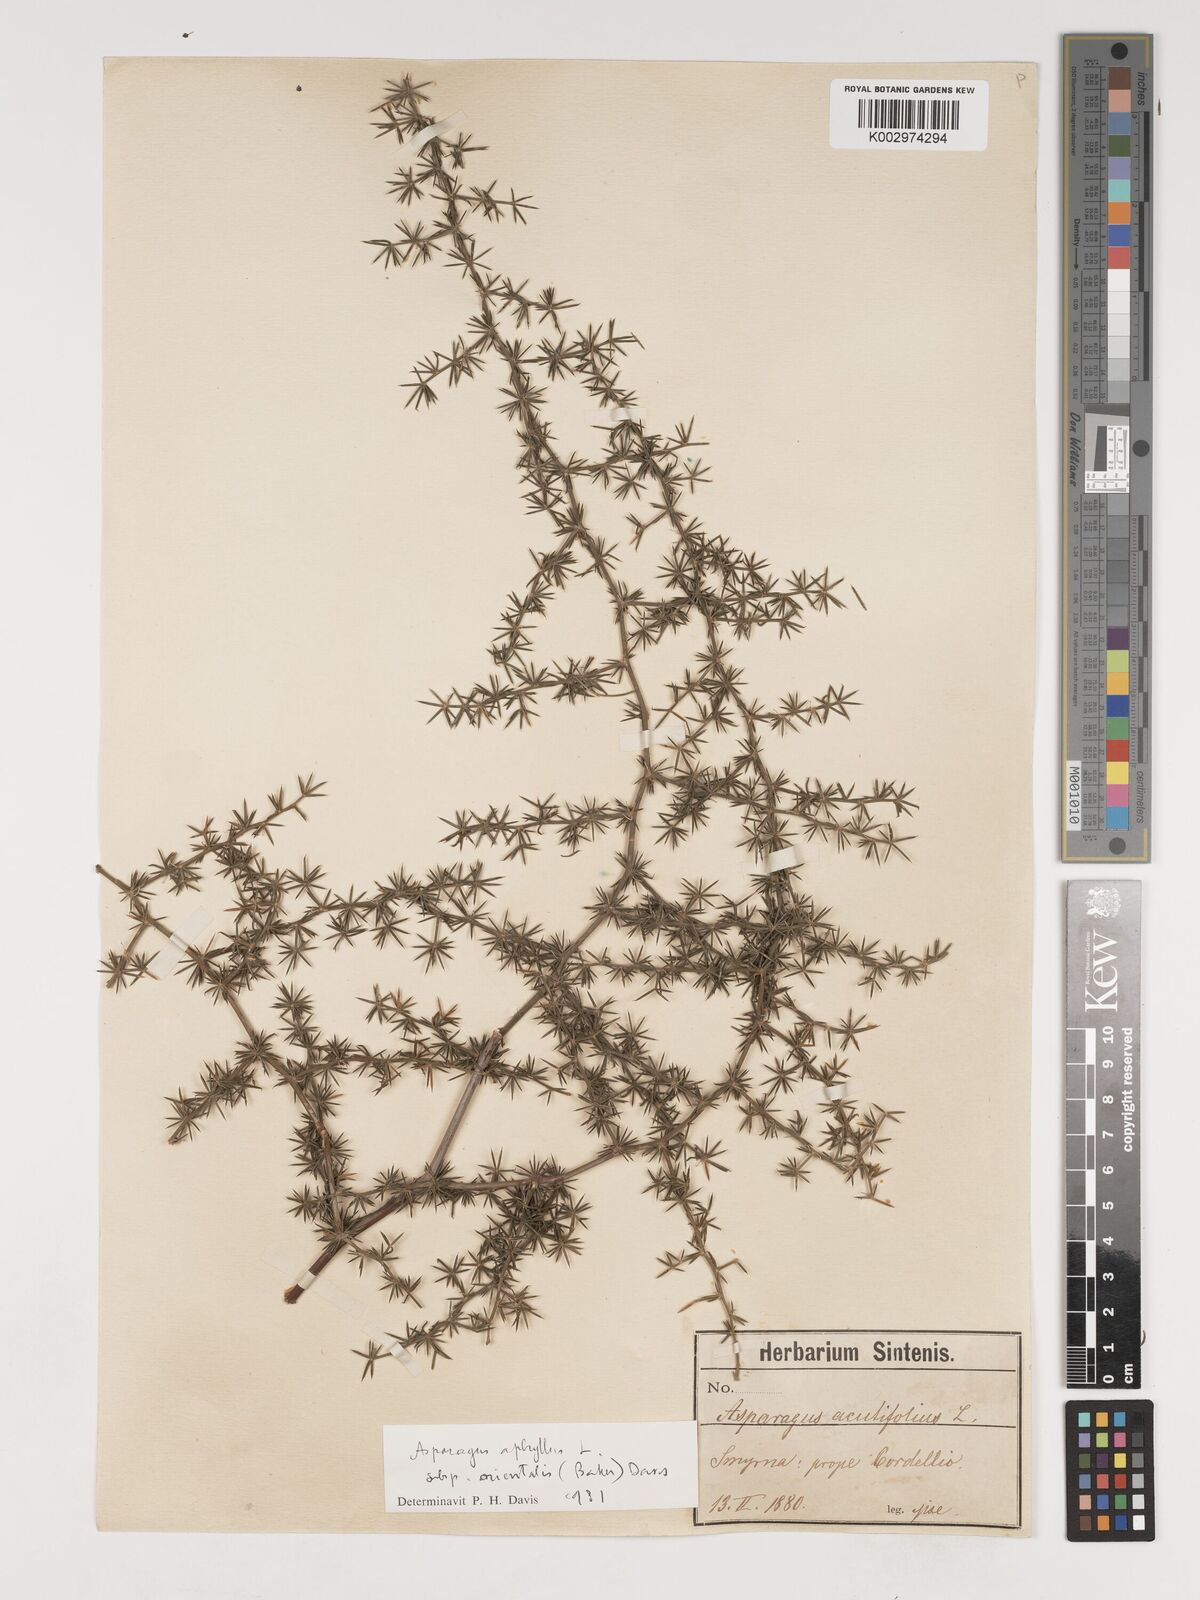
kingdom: Plantae
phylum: Tracheophyta
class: Liliopsida
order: Asparagales
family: Asparagaceae
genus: Asparagus
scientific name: Asparagus aphyllus
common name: Mediterranean asparagus
